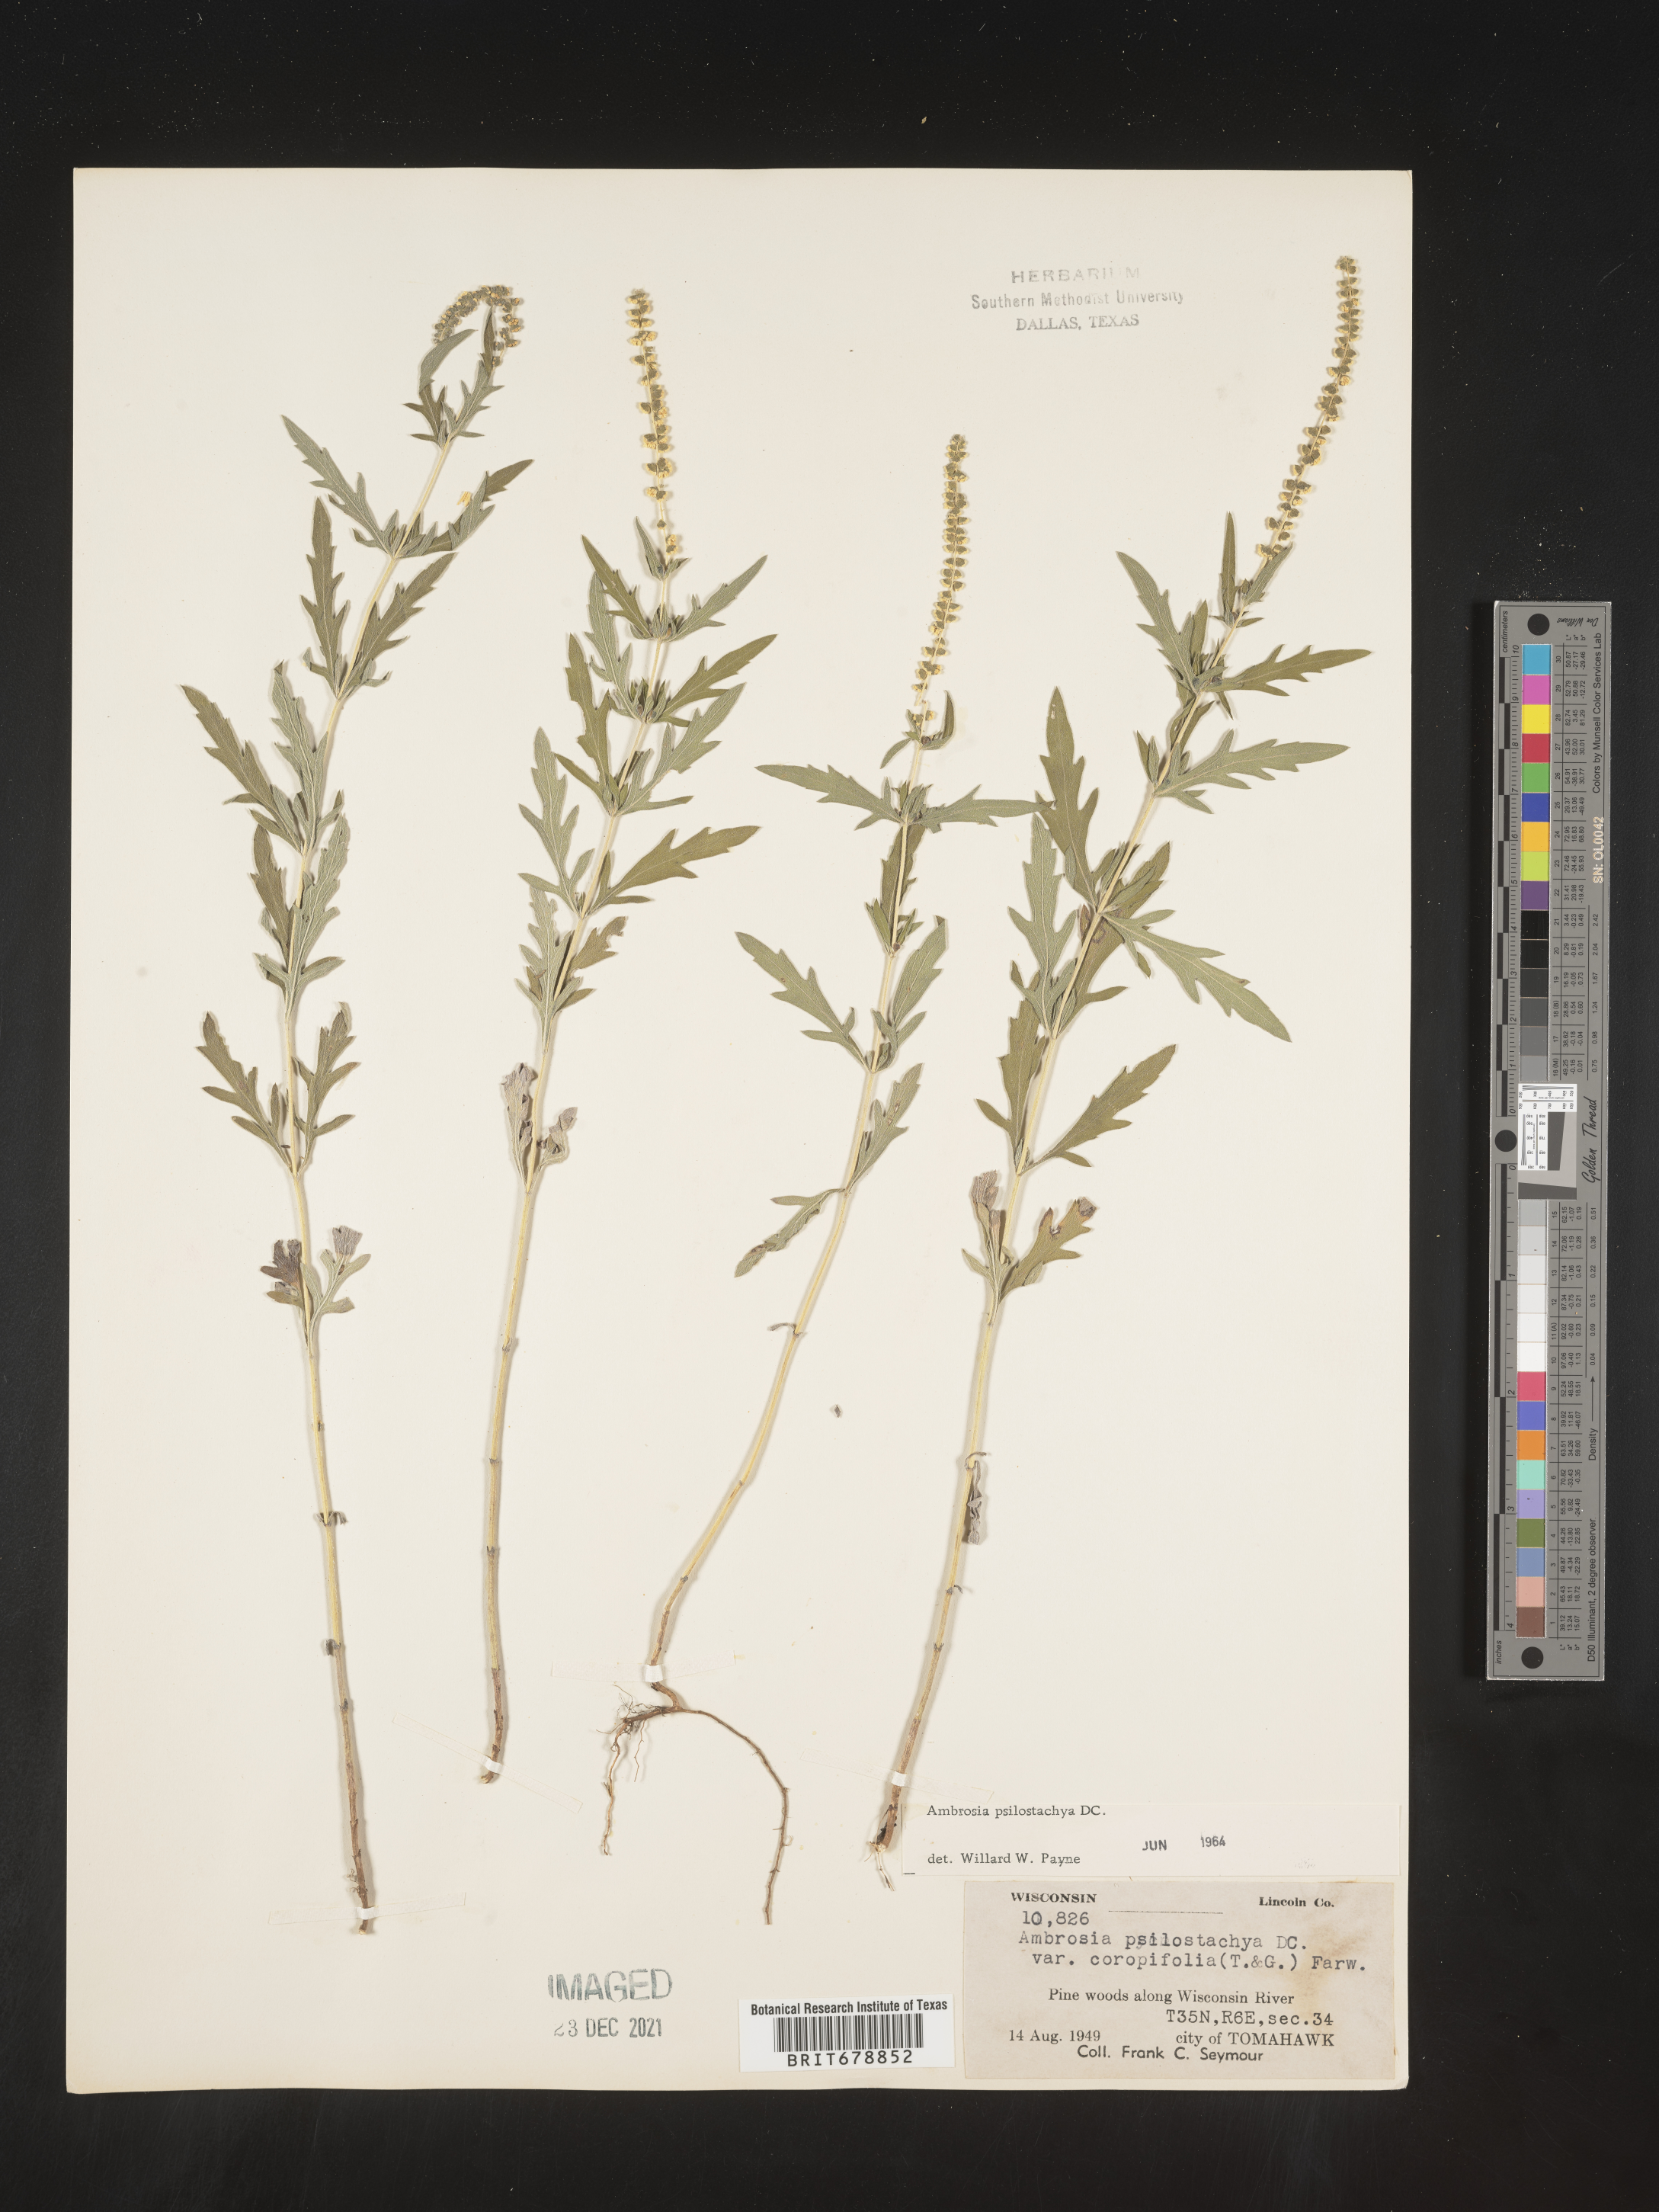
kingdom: Plantae
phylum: Tracheophyta
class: Magnoliopsida
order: Asterales
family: Asteraceae
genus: Ambrosia
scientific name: Ambrosia psilostachya
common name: Perennial ragweed
